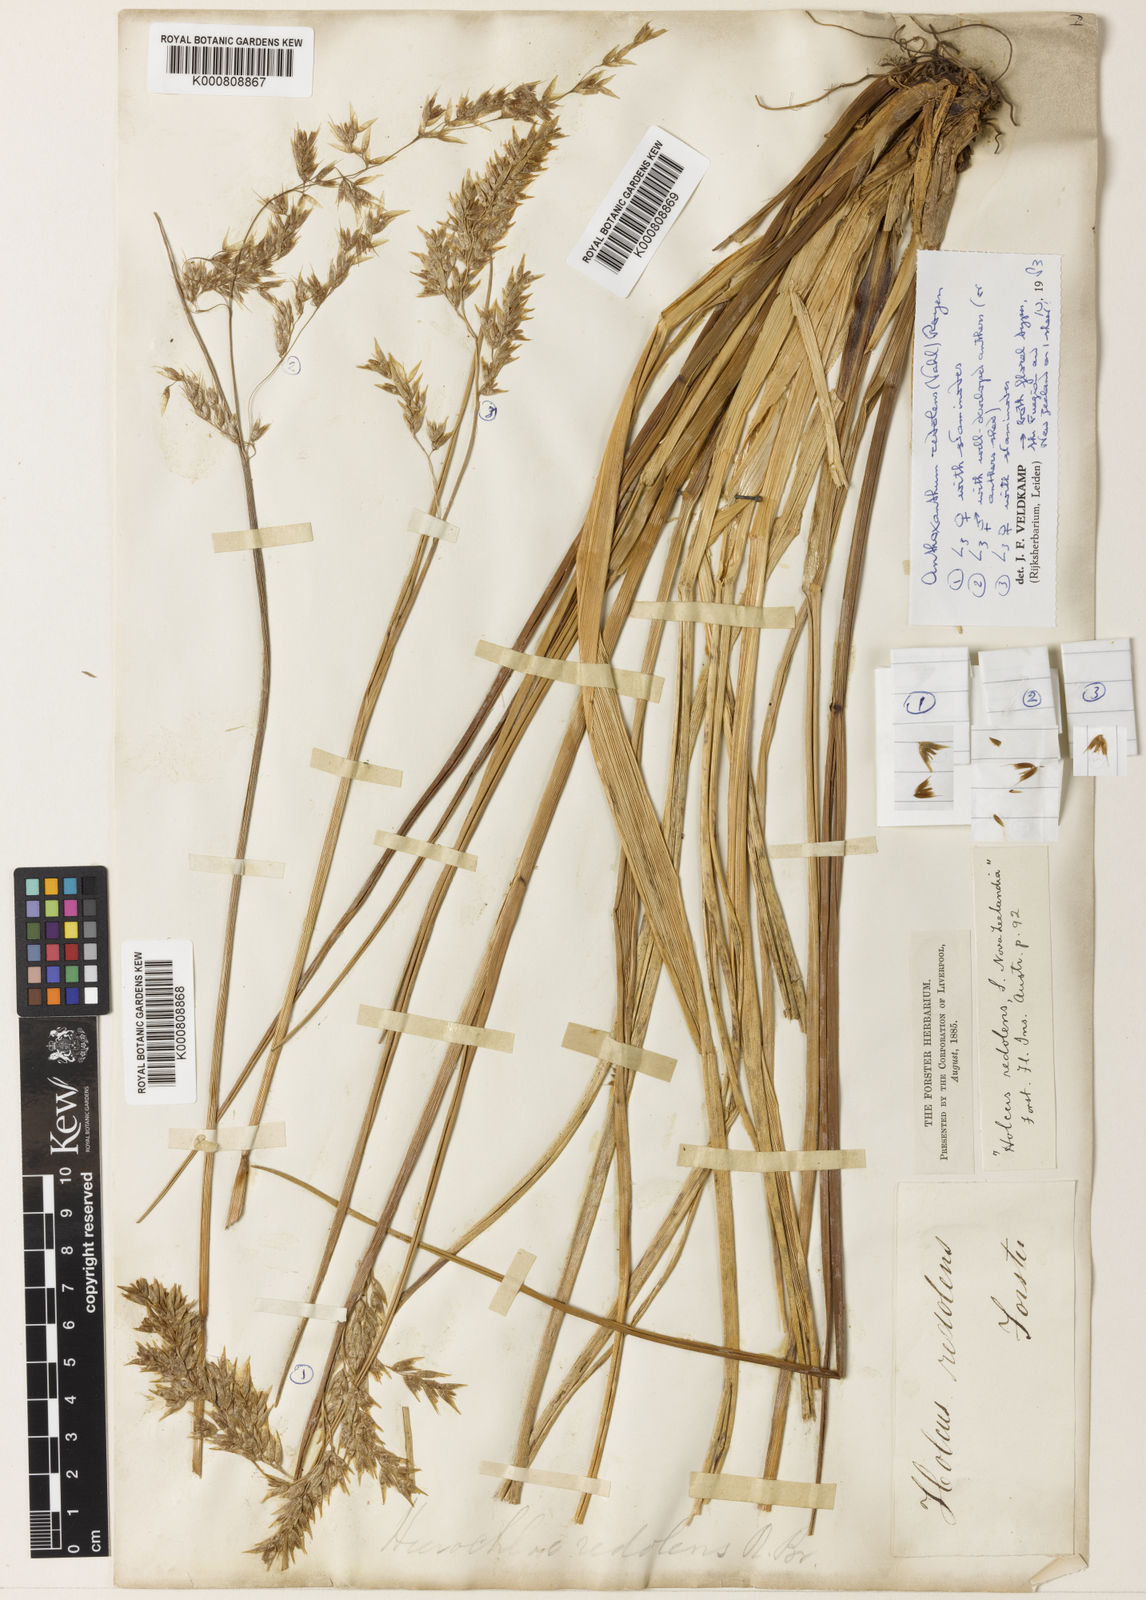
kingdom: Plantae
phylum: Tracheophyta
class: Liliopsida
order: Poales
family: Poaceae
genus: Hierochloe
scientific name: Hierochloe
